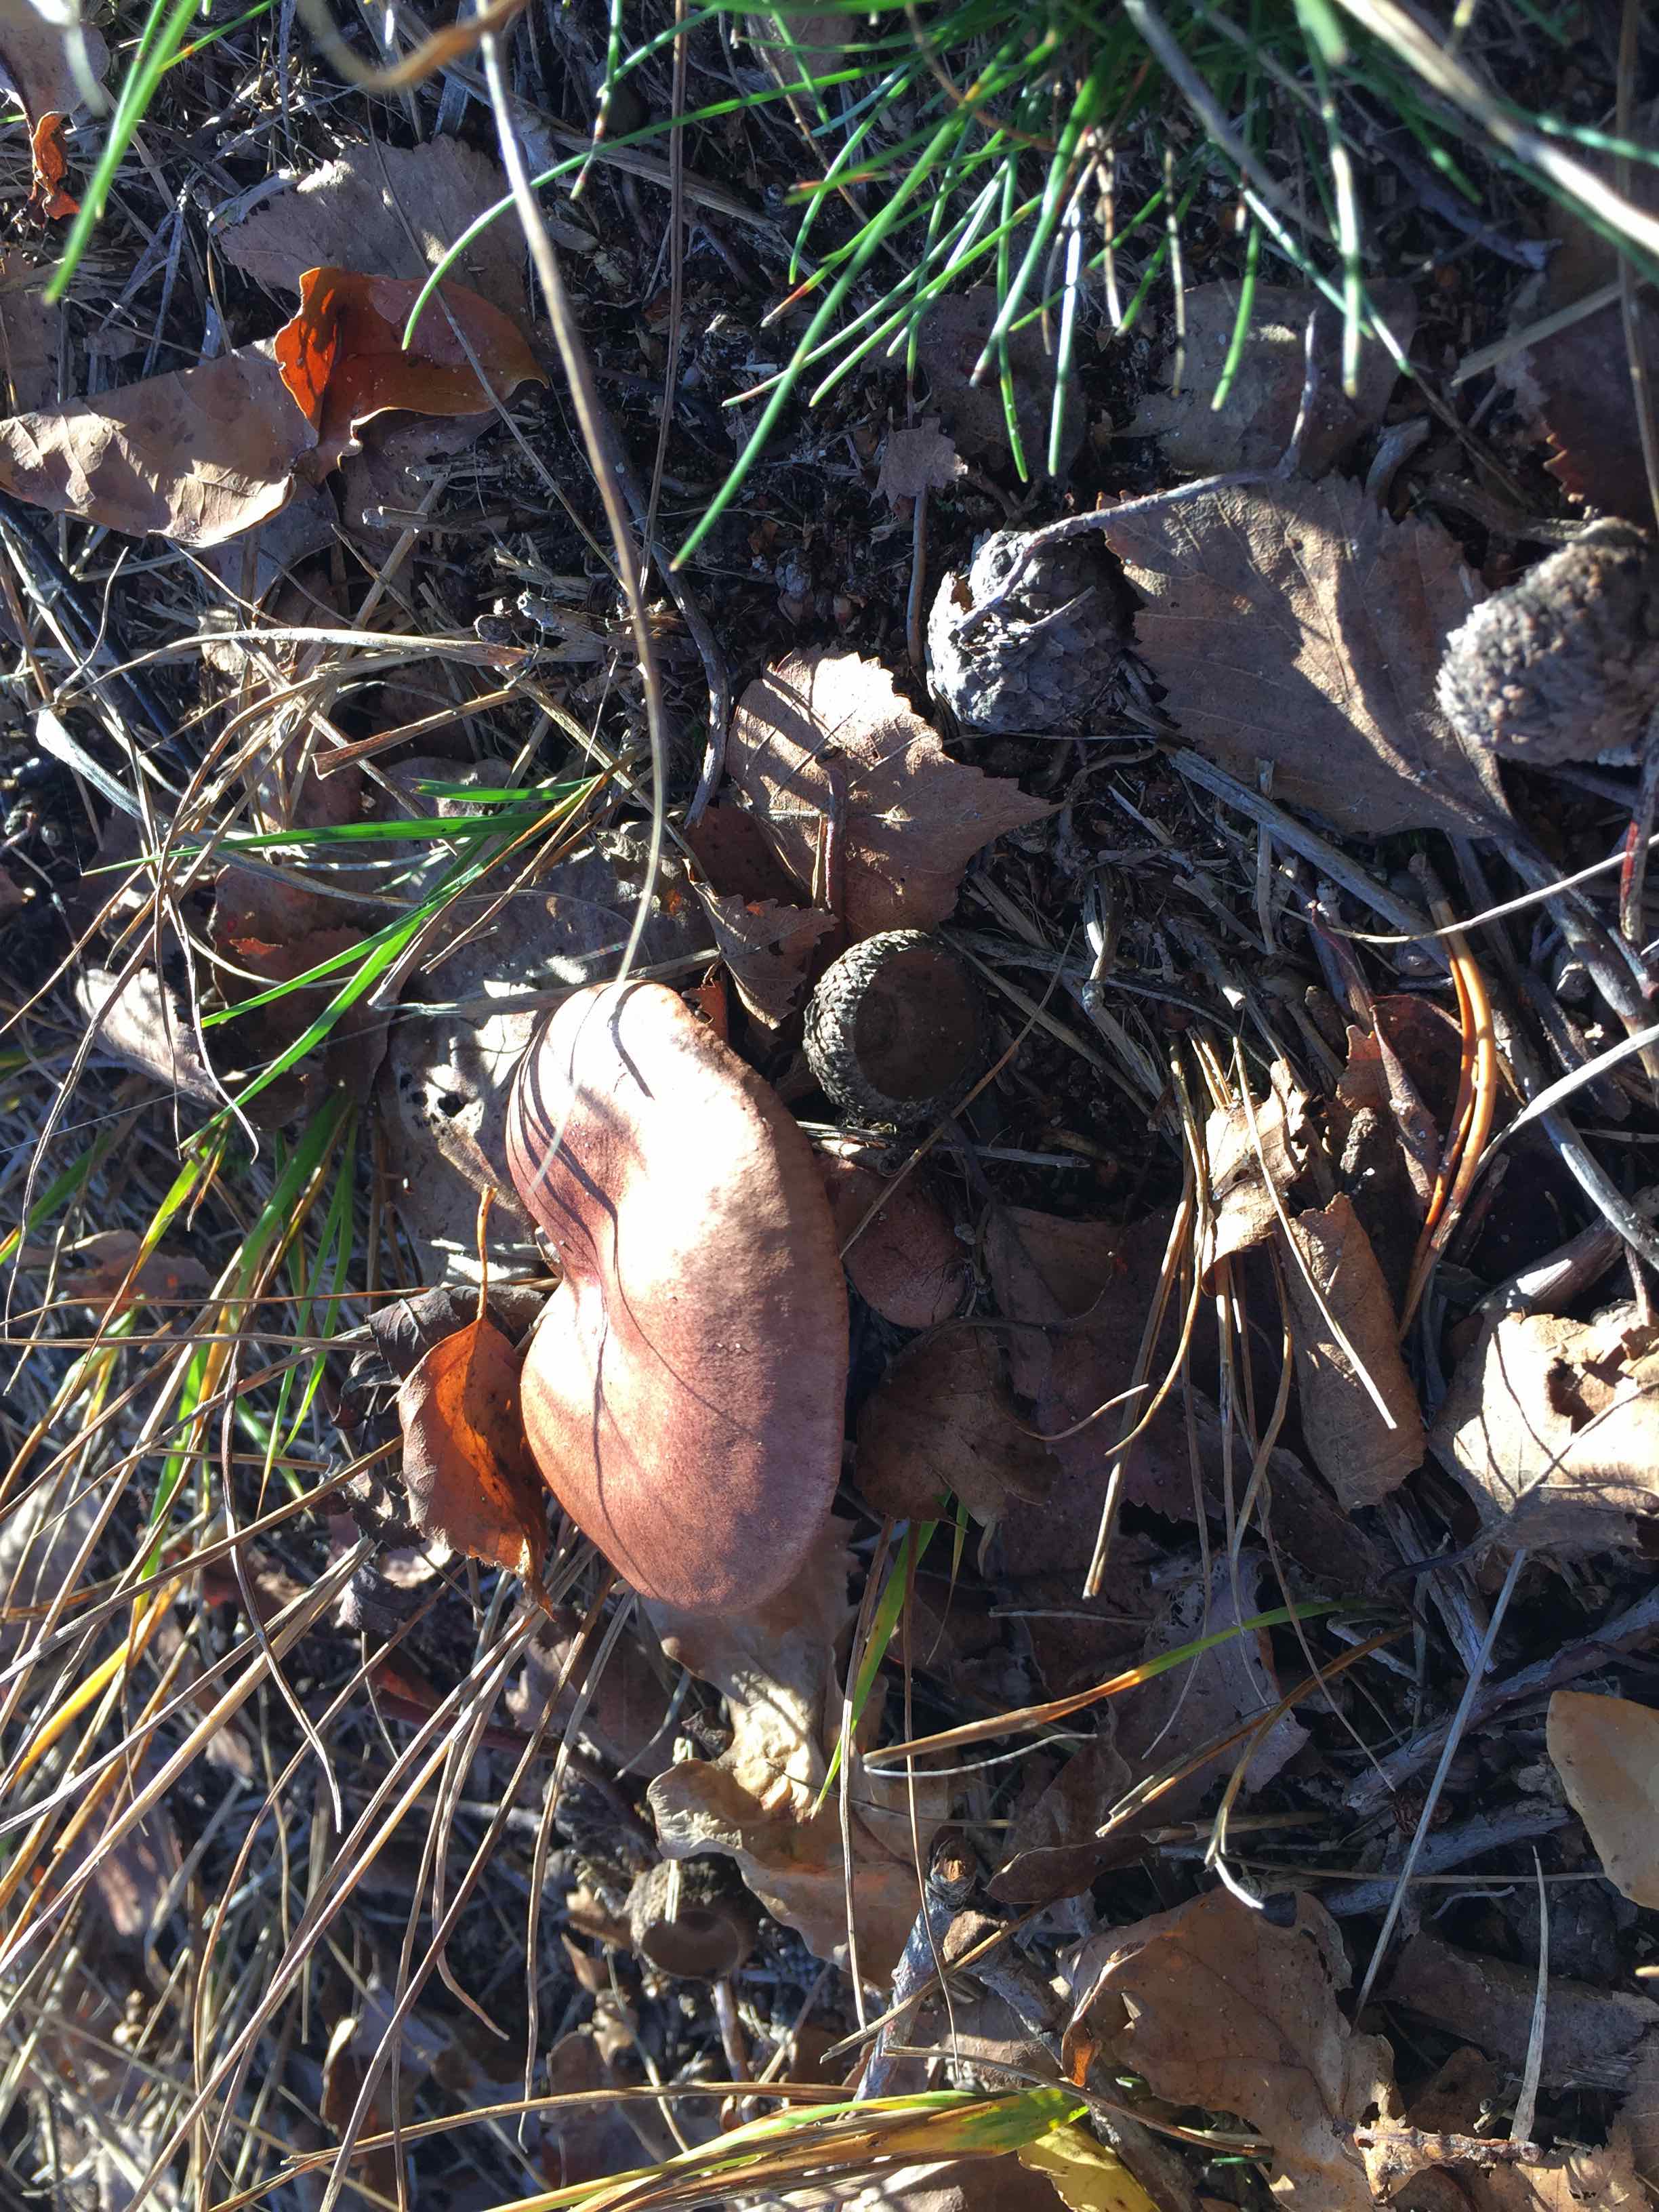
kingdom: Fungi
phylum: Basidiomycota
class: Agaricomycetes
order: Agaricales
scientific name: Agaricales
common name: champignonordenen
